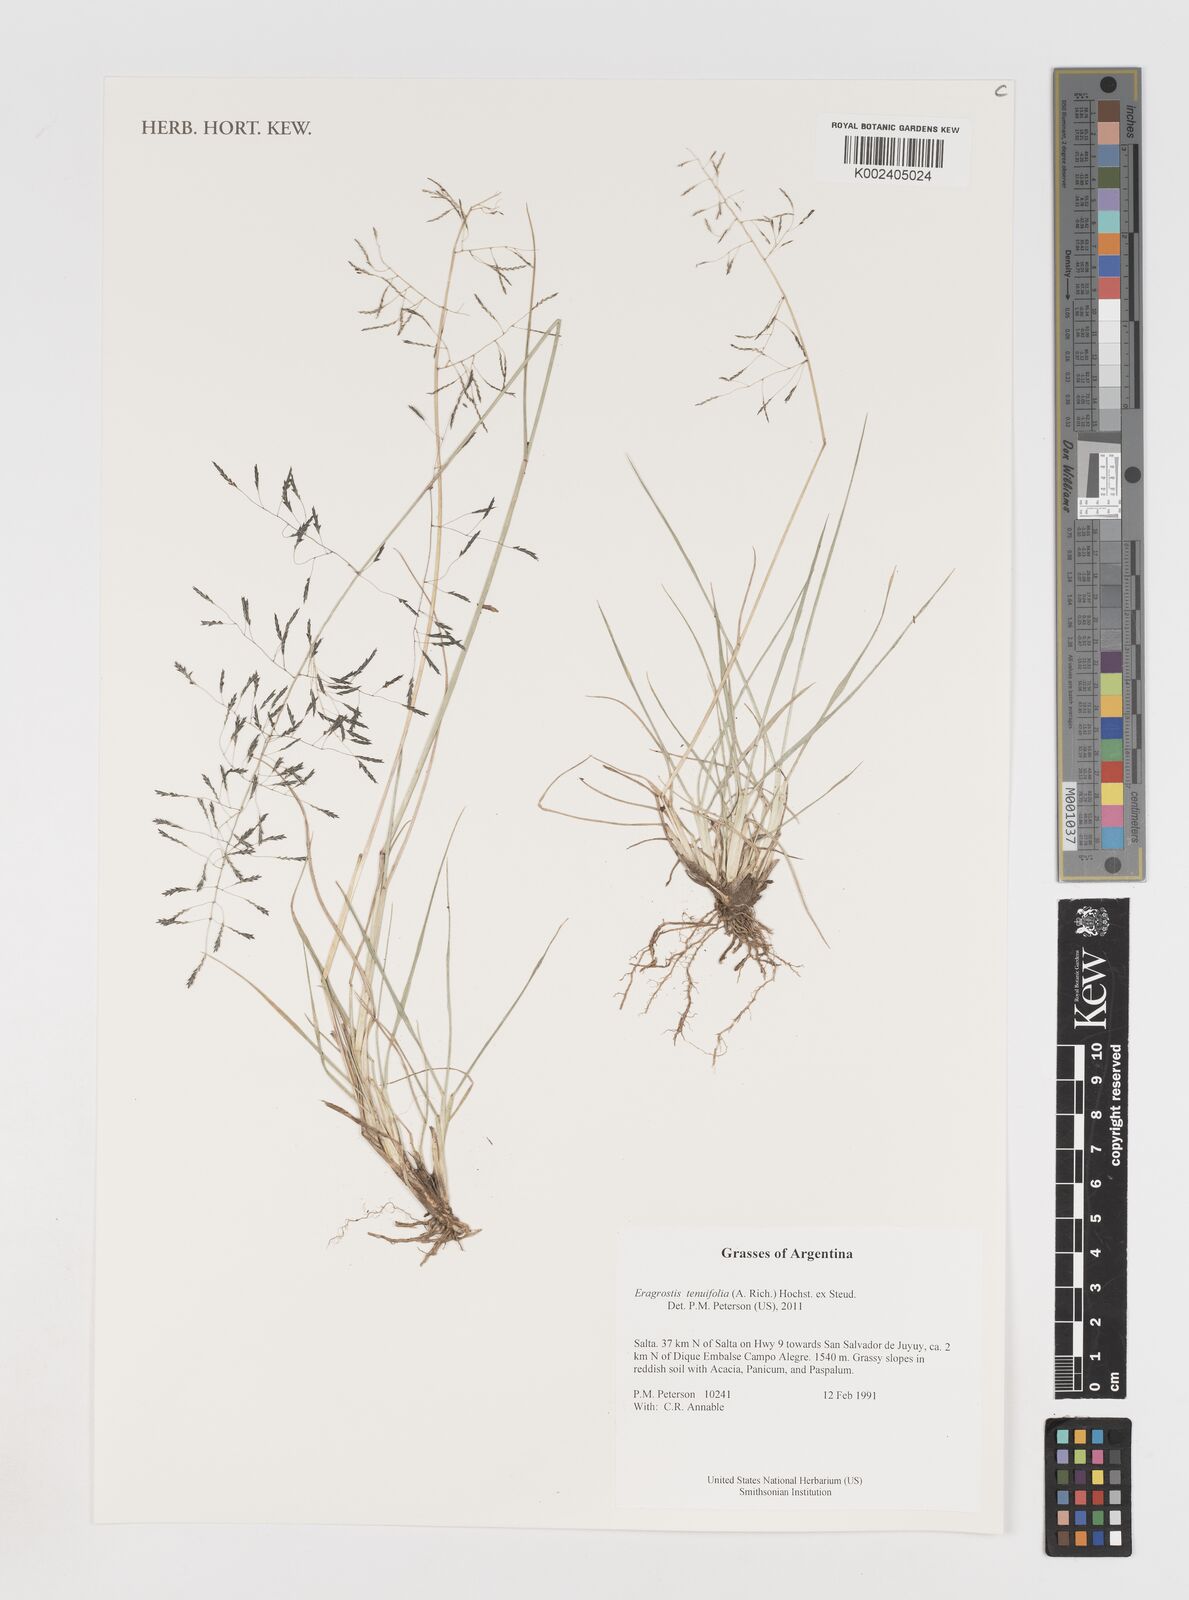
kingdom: Plantae
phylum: Tracheophyta
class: Liliopsida
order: Poales
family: Poaceae
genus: Eragrostis
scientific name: Eragrostis tenuifolia
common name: Elastic grass
